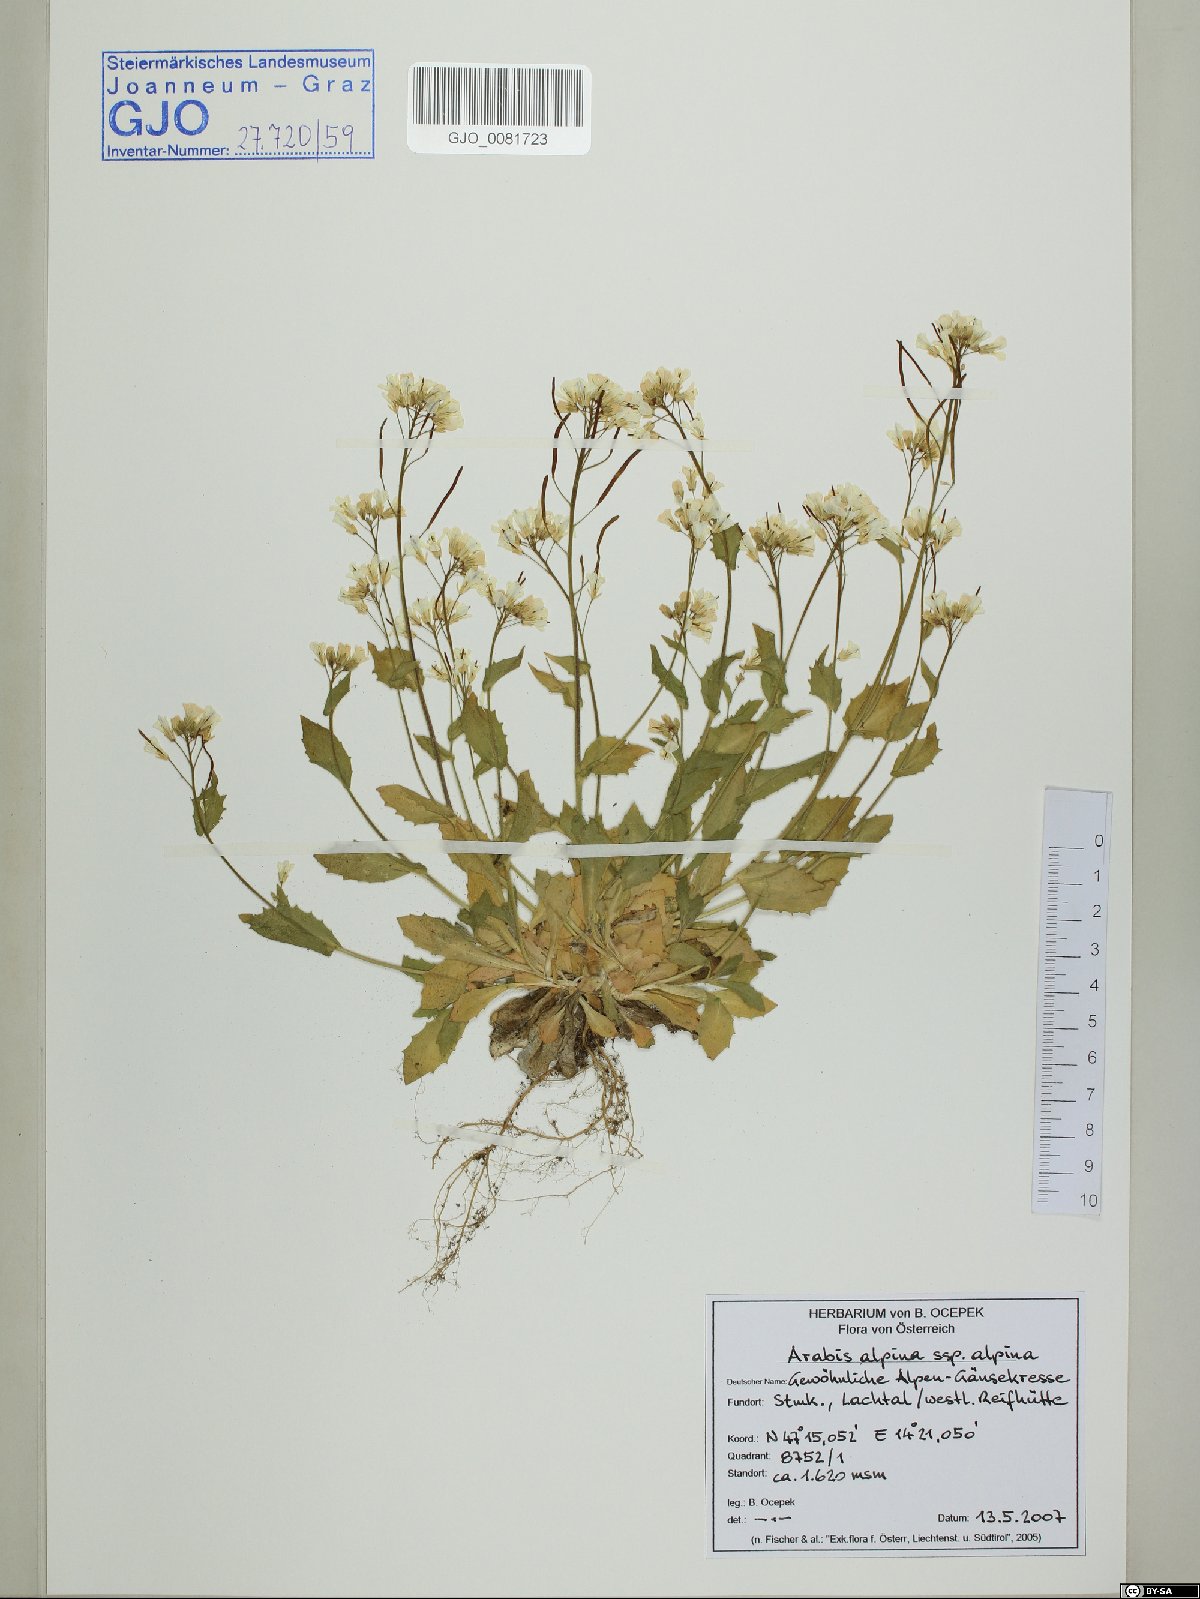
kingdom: Plantae
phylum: Tracheophyta
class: Magnoliopsida
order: Brassicales
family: Brassicaceae
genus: Arabis
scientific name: Arabis alpina
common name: Alpine rock-cress
